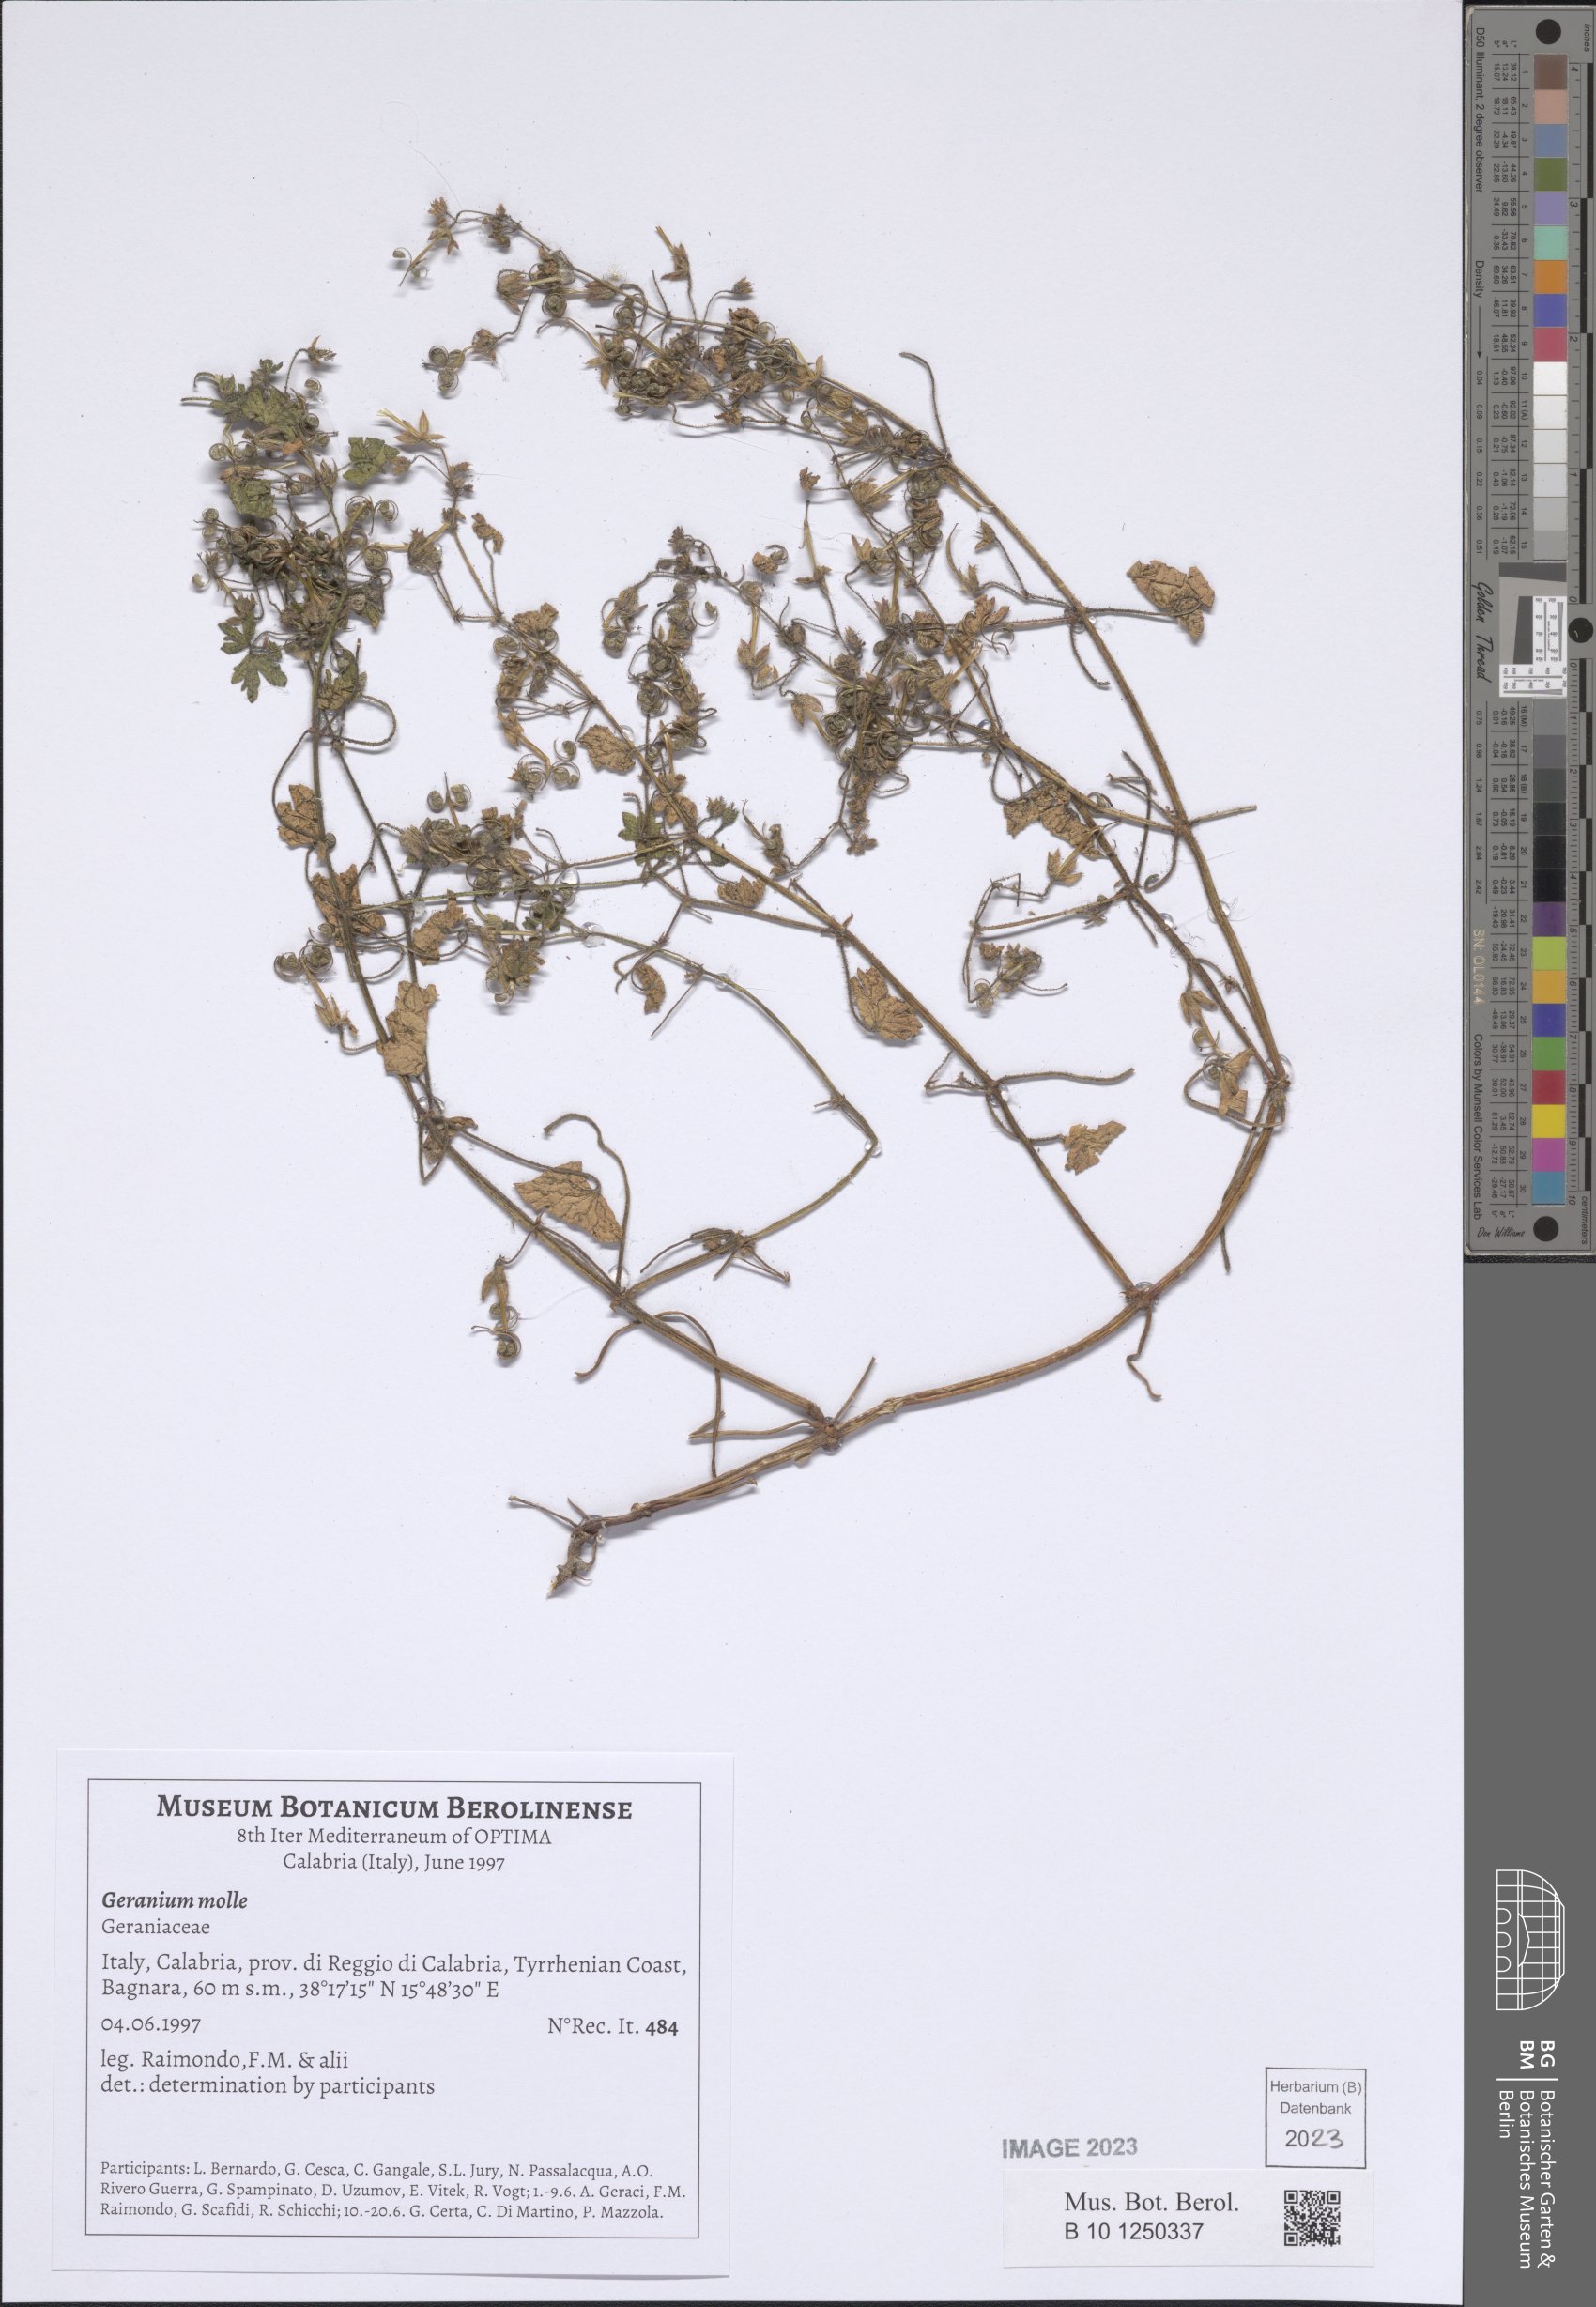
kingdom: Plantae
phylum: Tracheophyta
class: Magnoliopsida
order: Geraniales
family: Geraniaceae
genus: Geranium
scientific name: Geranium molle
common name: Dove's-foot crane's-bill
